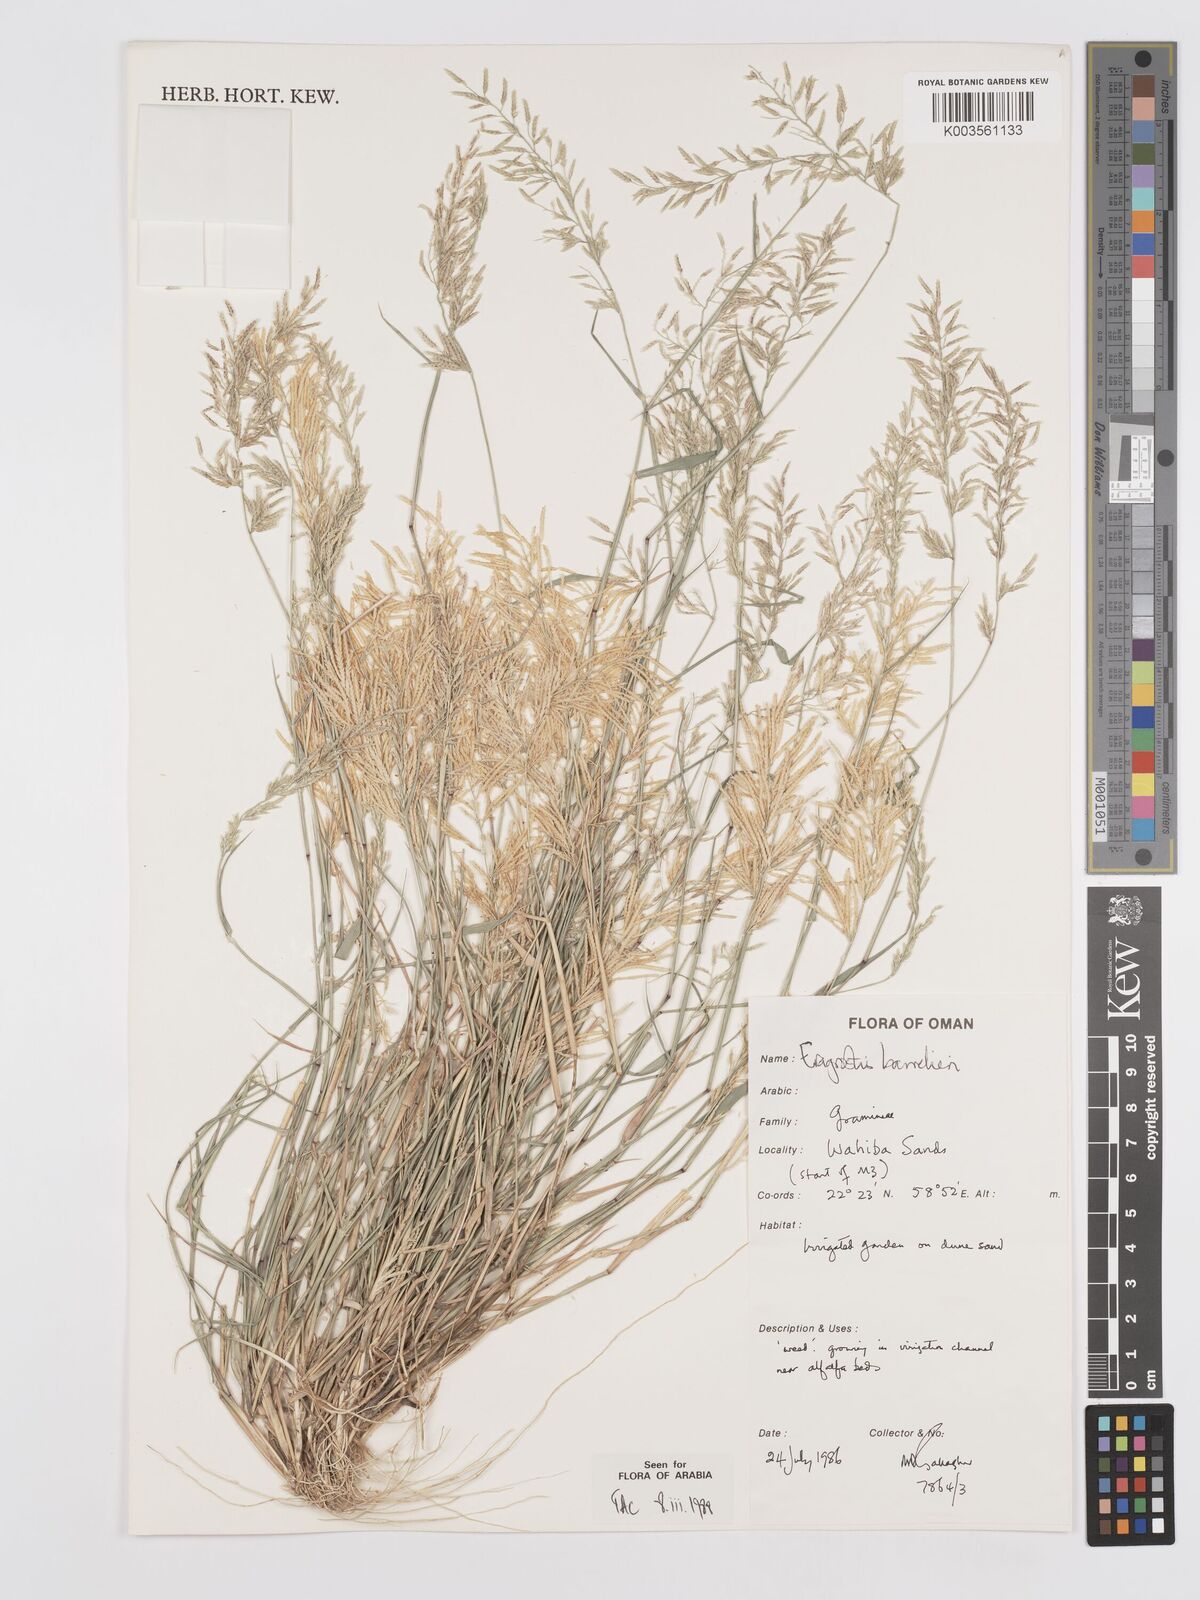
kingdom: Plantae
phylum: Tracheophyta
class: Liliopsida
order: Poales
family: Poaceae
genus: Eragrostis
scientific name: Eragrostis barrelieri
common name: Mediterranean lovegrass
